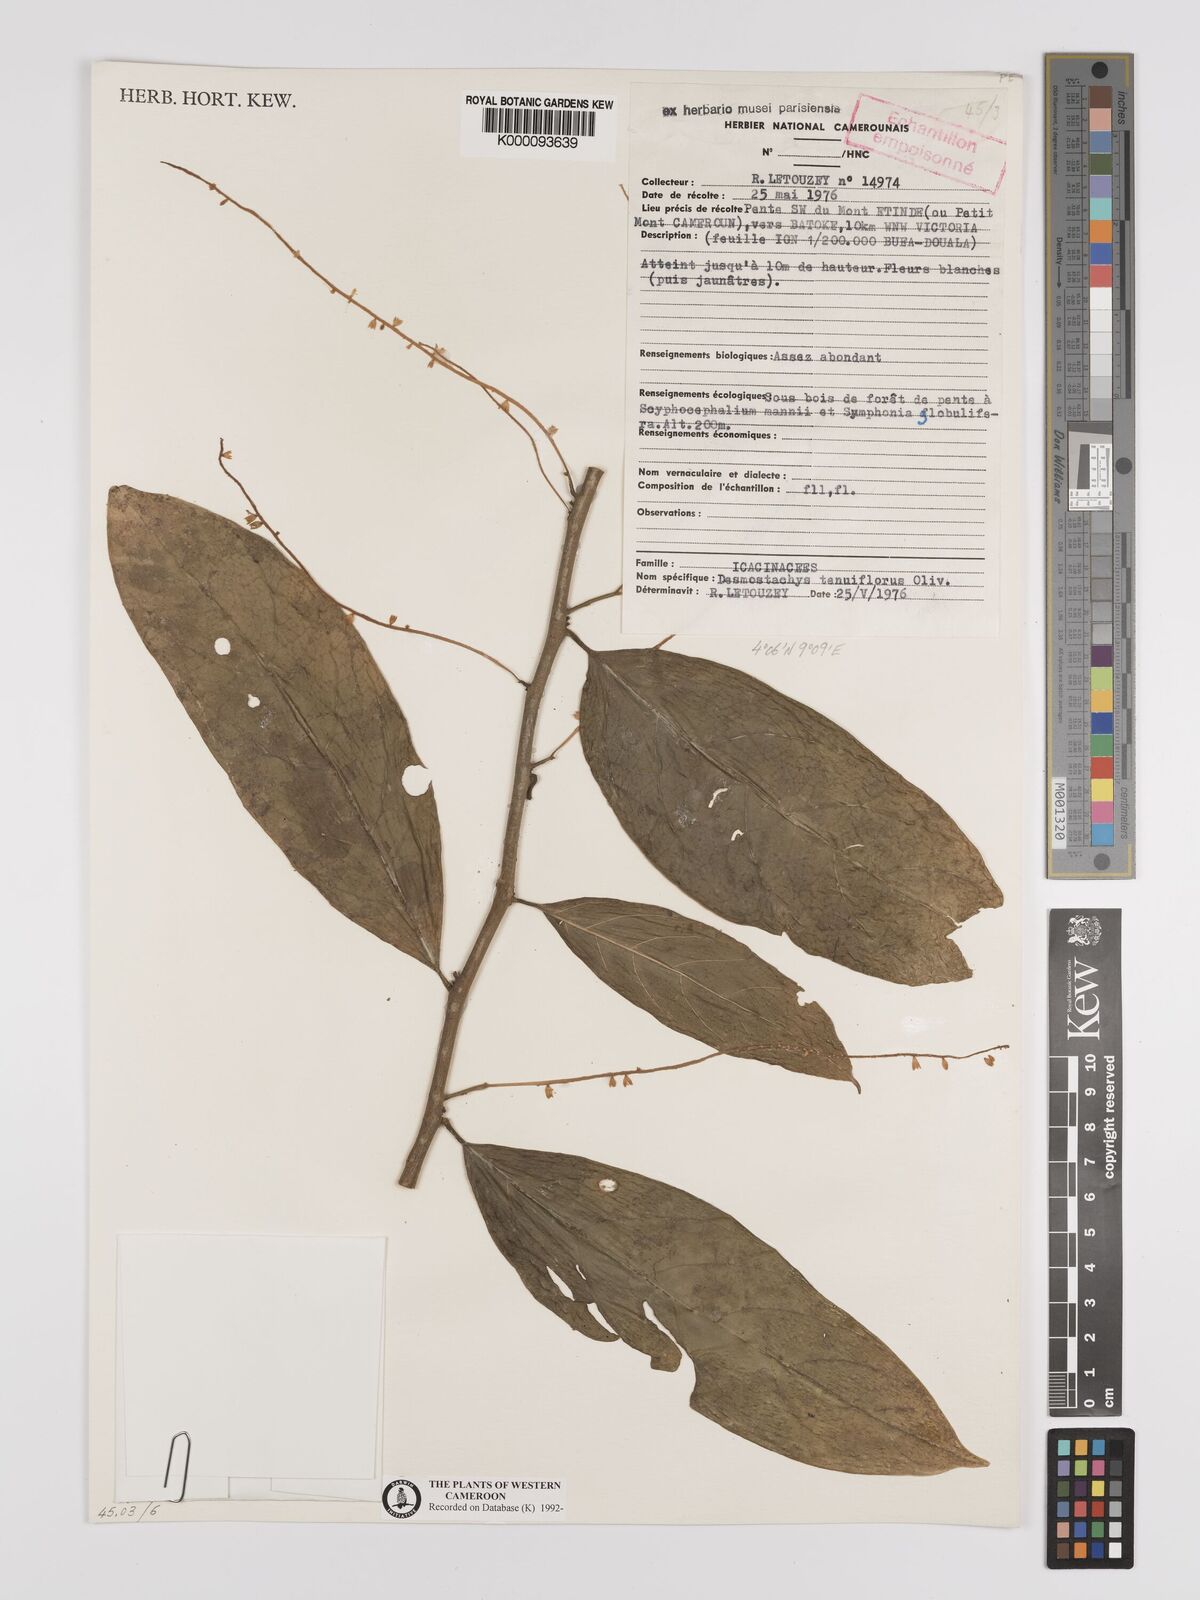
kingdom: Plantae
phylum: Tracheophyta
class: Magnoliopsida
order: Icacinales
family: Icacinaceae
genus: Vadensea
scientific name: Vadensea tenuifolia
